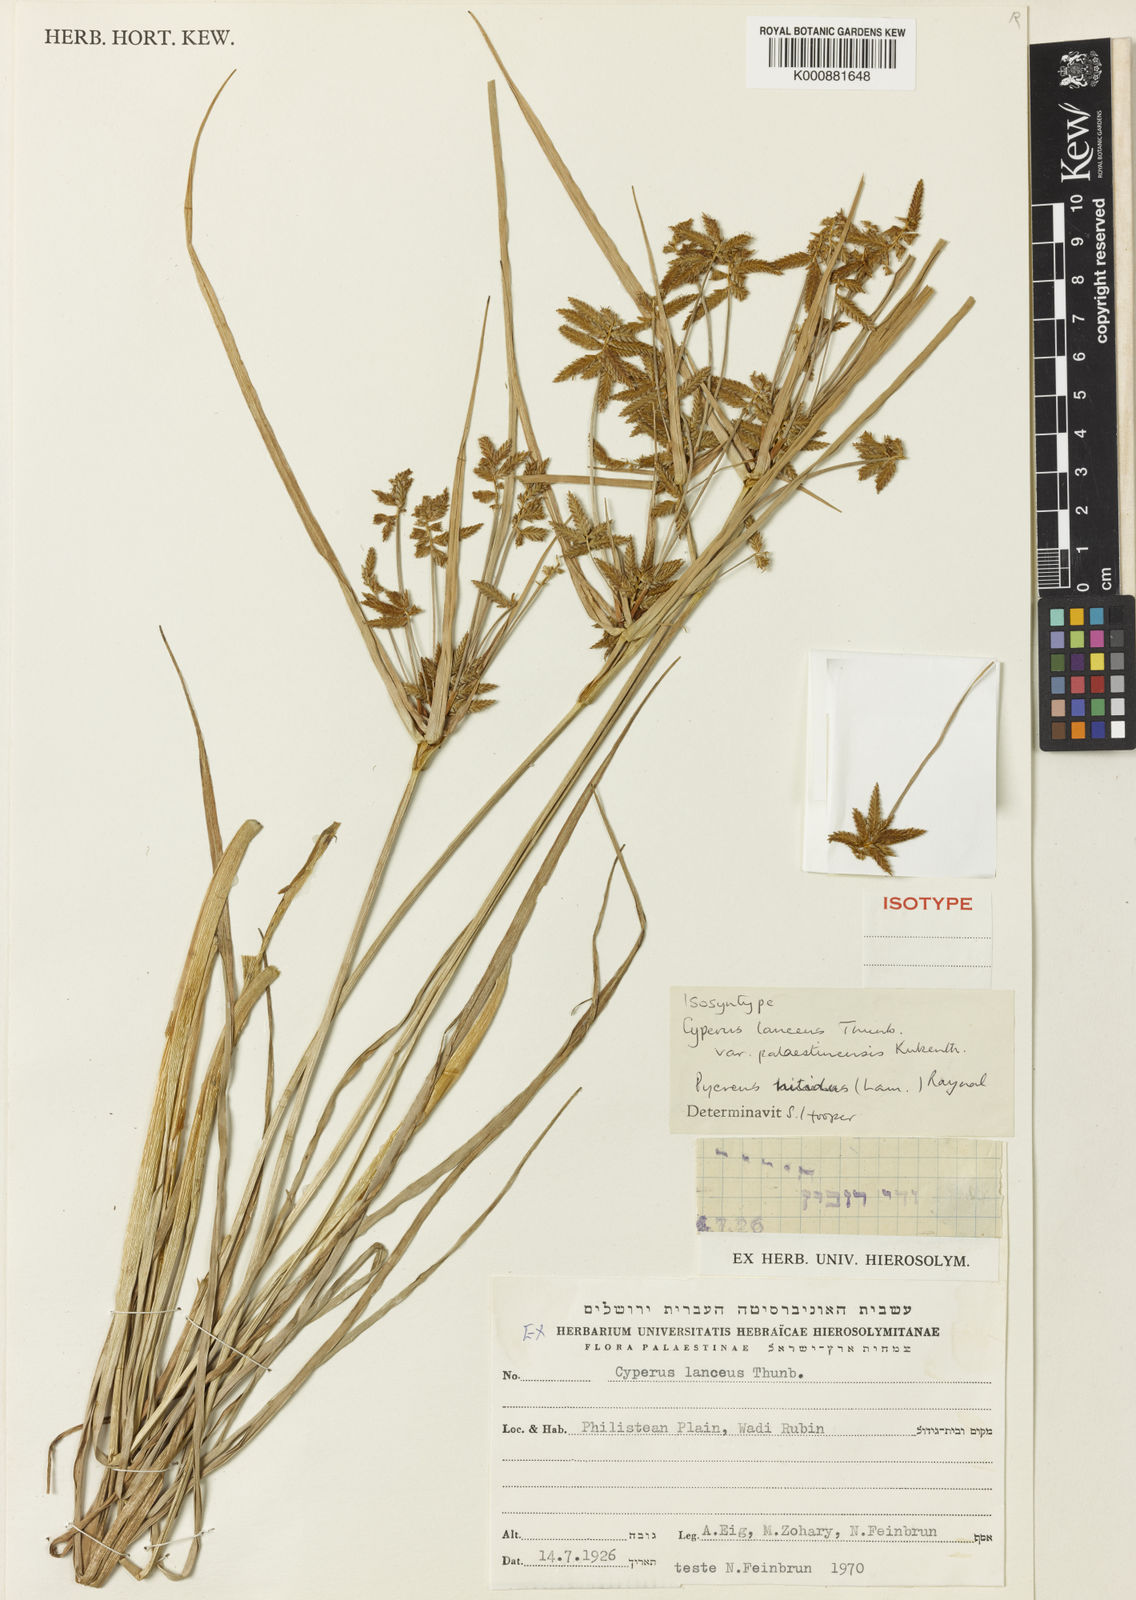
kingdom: Plantae
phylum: Tracheophyta
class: Liliopsida
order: Poales
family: Cyperaceae
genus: Cyperus
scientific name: Cyperus nitidus
